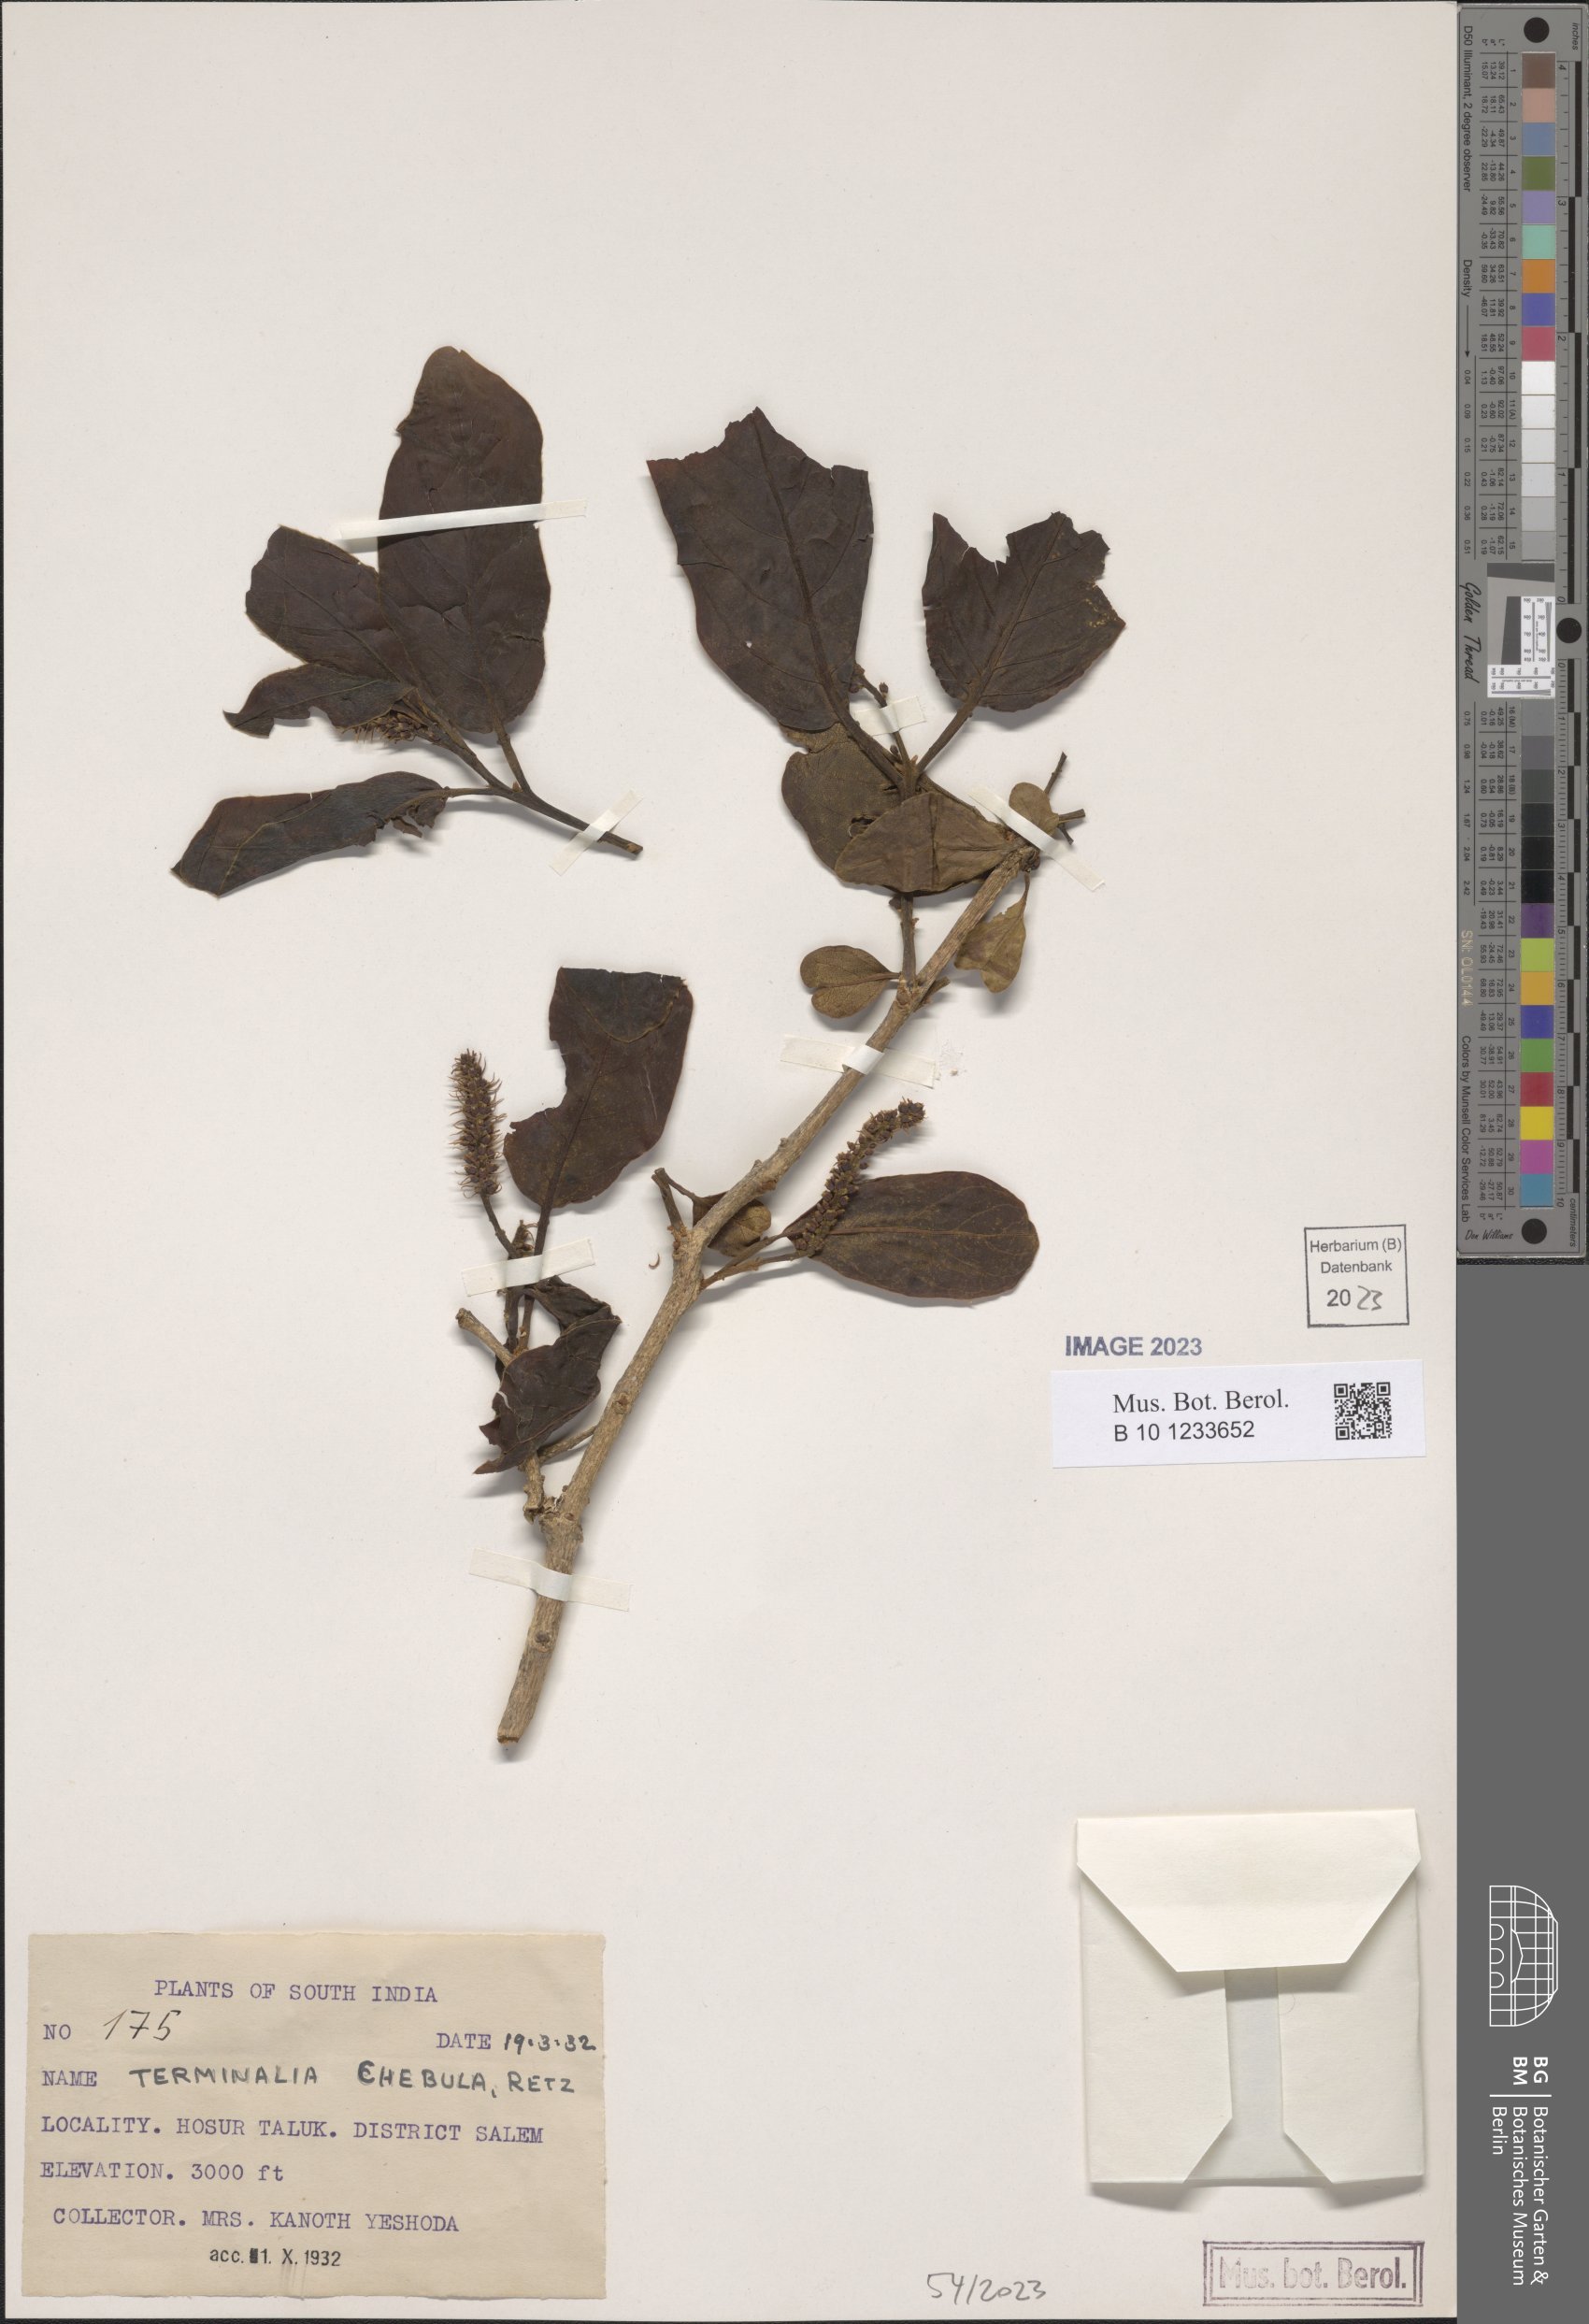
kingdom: Plantae
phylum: Tracheophyta
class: Magnoliopsida
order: Myrtales
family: Combretaceae
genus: Terminalia
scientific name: Terminalia chebula
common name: Myrobalan
